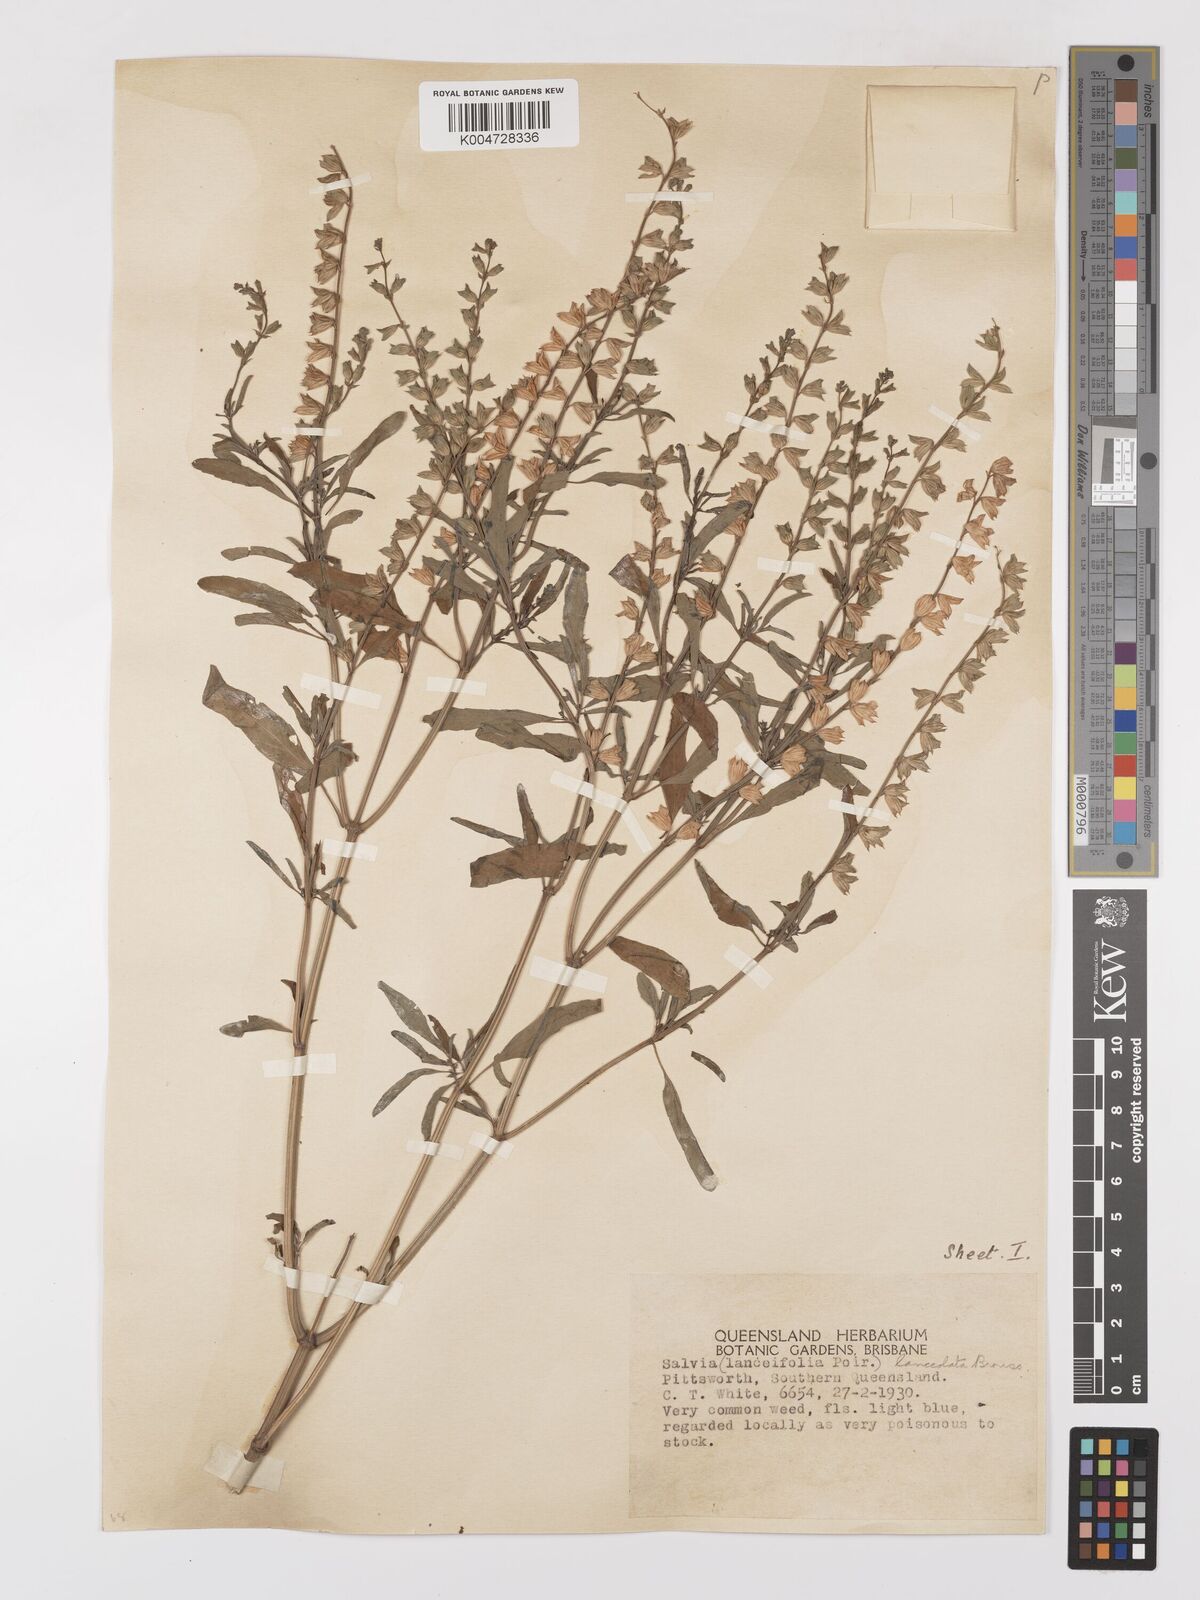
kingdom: Plantae
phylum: Tracheophyta
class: Magnoliopsida
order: Lamiales
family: Lamiaceae
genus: Salvia
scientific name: Salvia reflexa
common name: Mintweed
